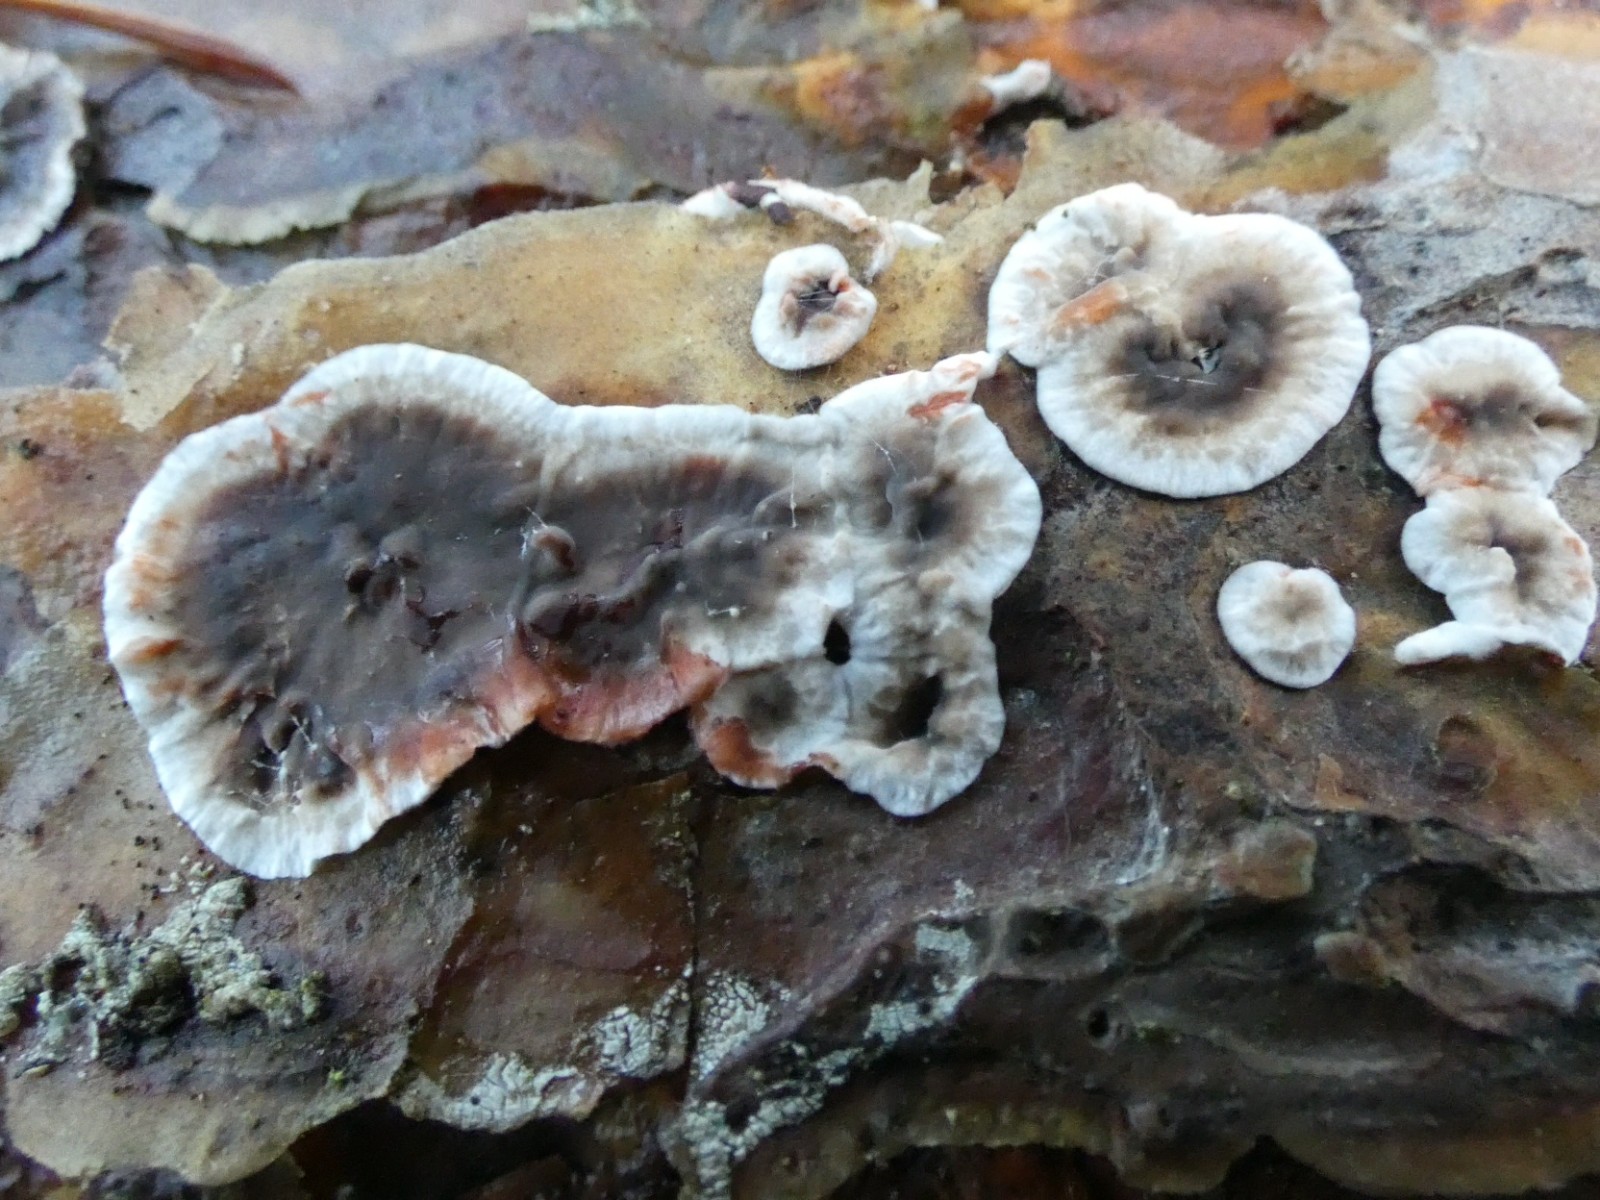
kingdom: Fungi
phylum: Basidiomycota
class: Agaricomycetes
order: Russulales
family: Stereaceae
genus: Stereum
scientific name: Stereum sanguinolentum
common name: blødende lædersvamp
